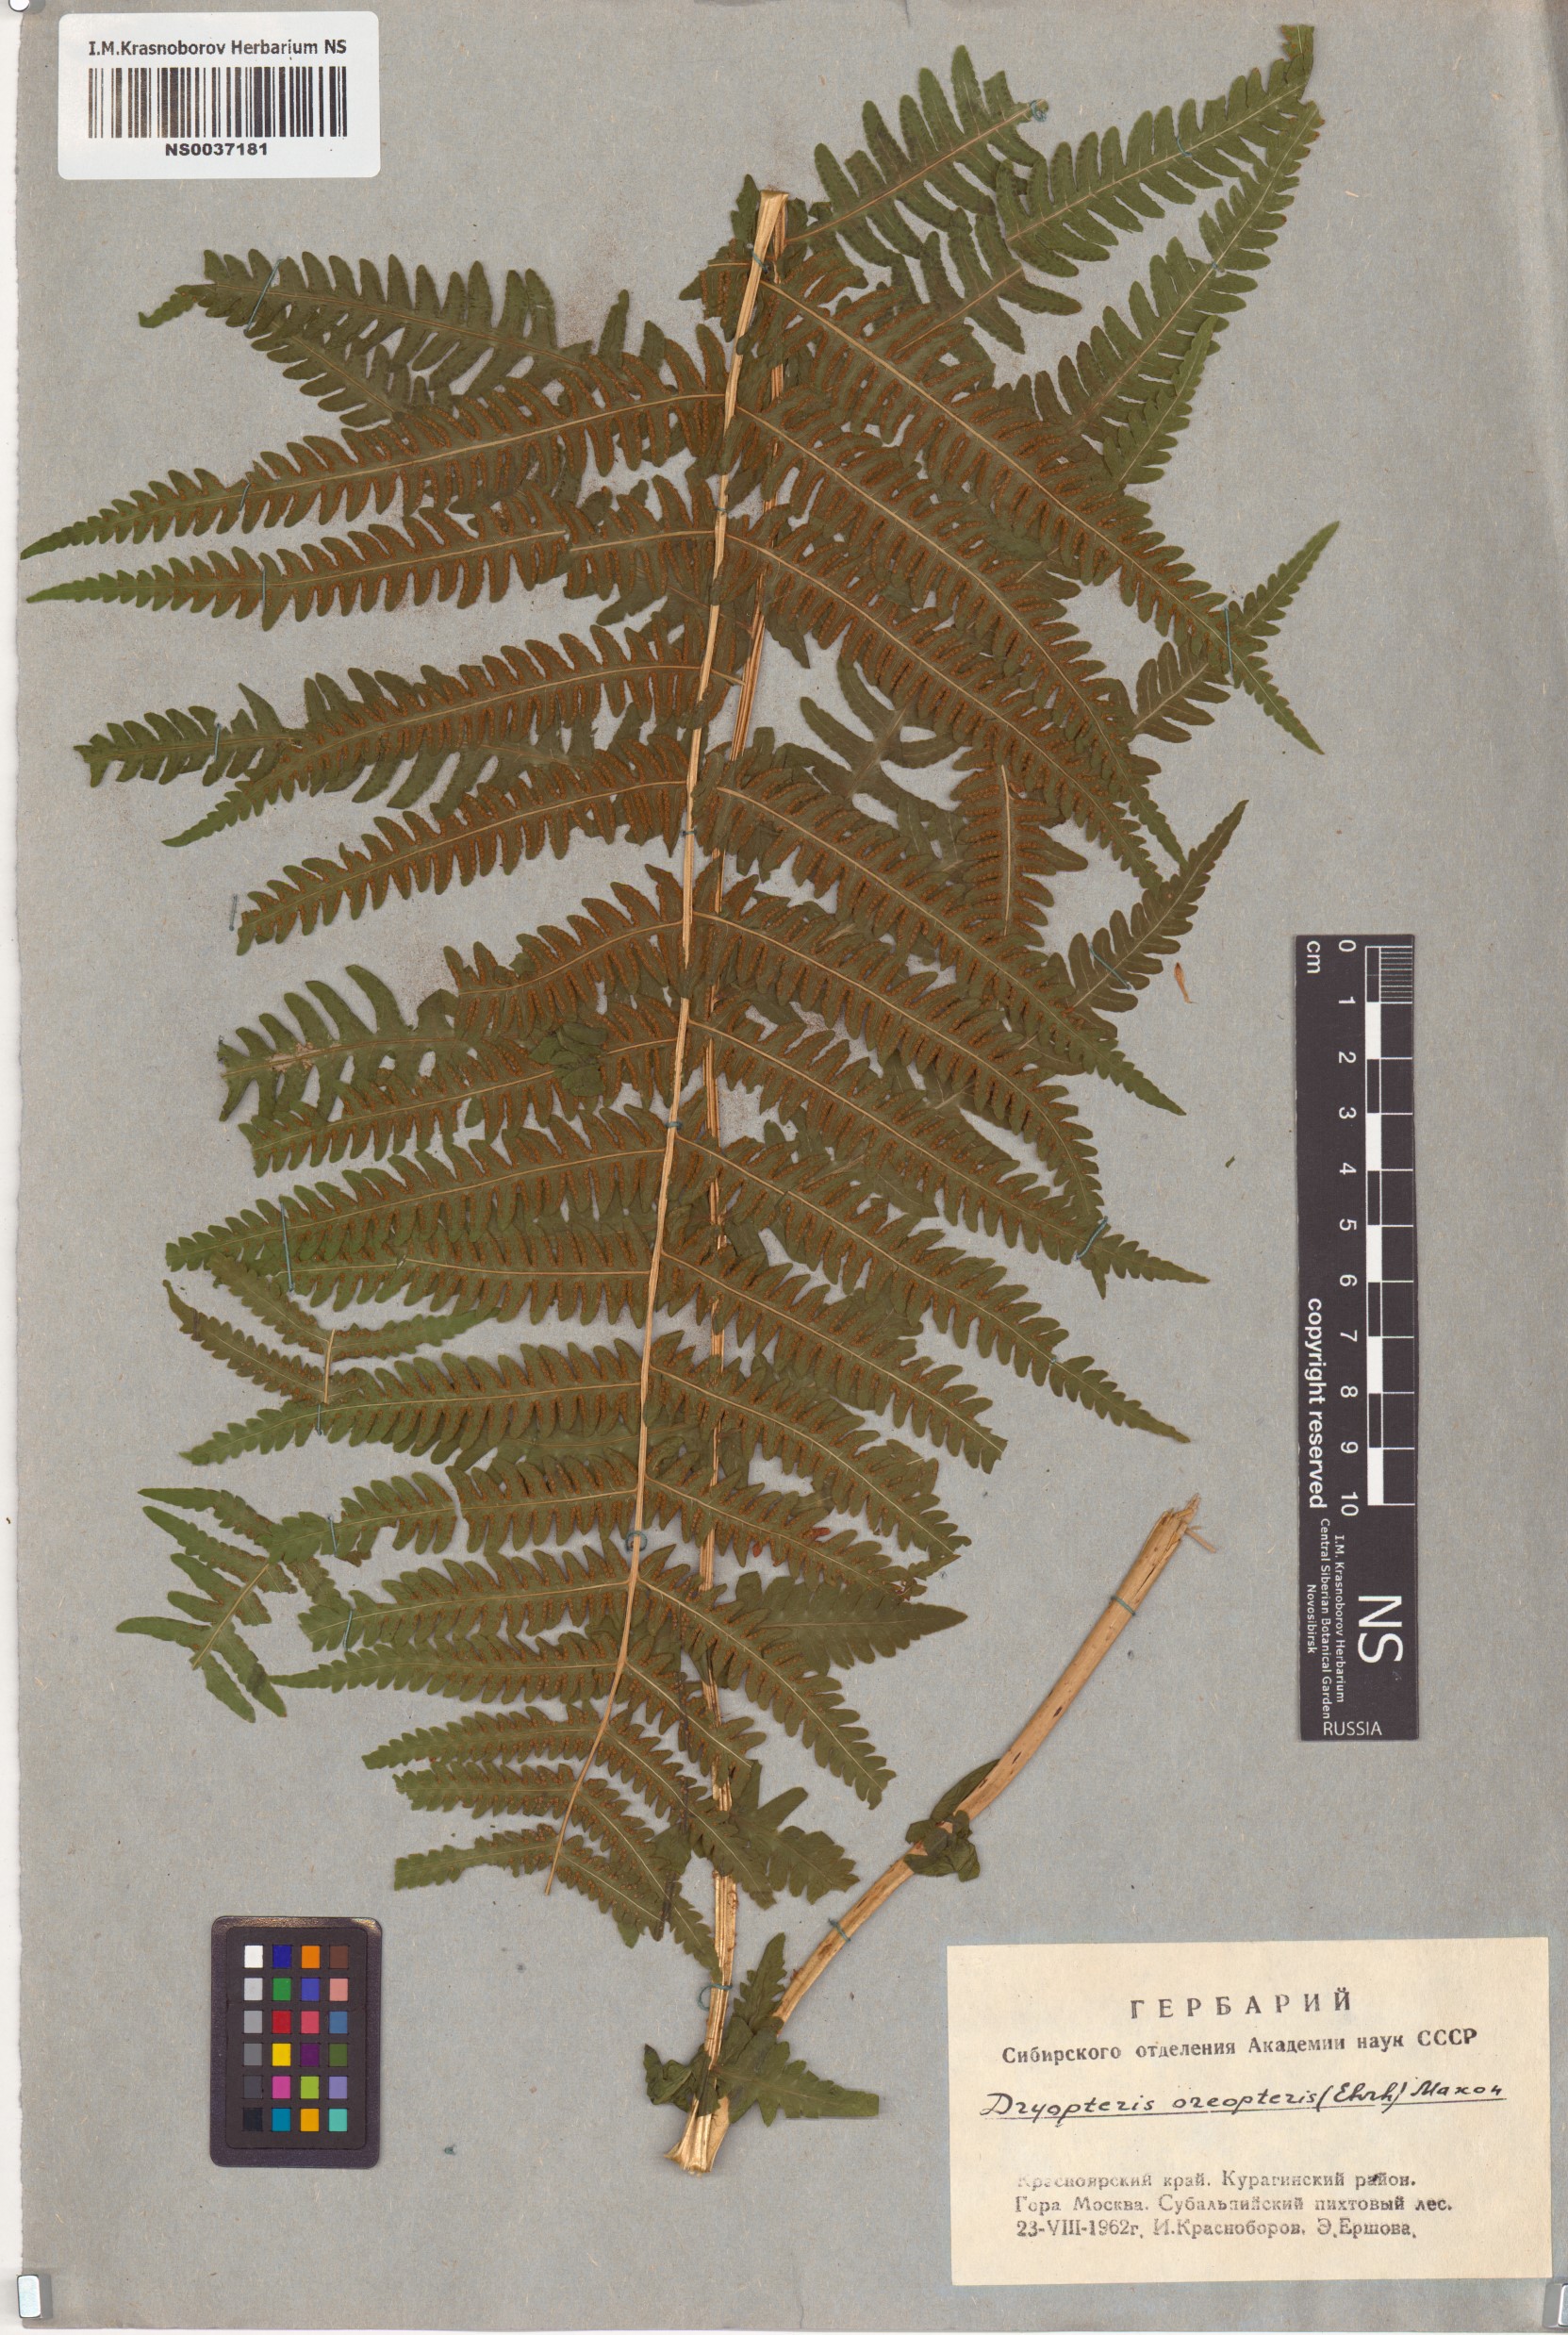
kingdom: Plantae
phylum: Tracheophyta
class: Polypodiopsida
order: Polypodiales
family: Thelypteridaceae
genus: Oreopteris
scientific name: Oreopteris limbosperma
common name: Lemon-scented fern
